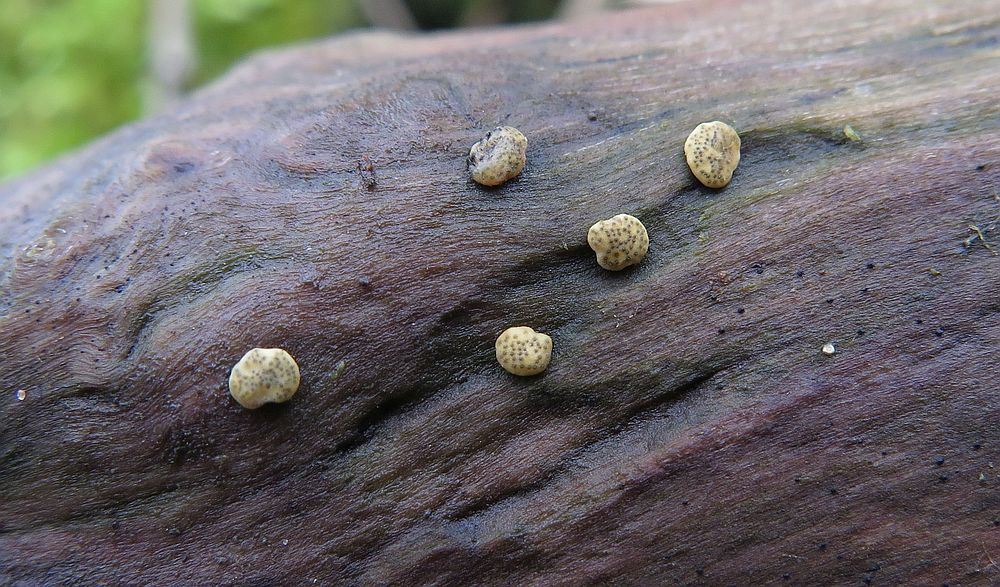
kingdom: Fungi
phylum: Ascomycota
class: Sordariomycetes
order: Hypocreales
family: Hypocreaceae
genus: Trichoderma
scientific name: Trichoderma strictipile
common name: grønprikket kødkerne
